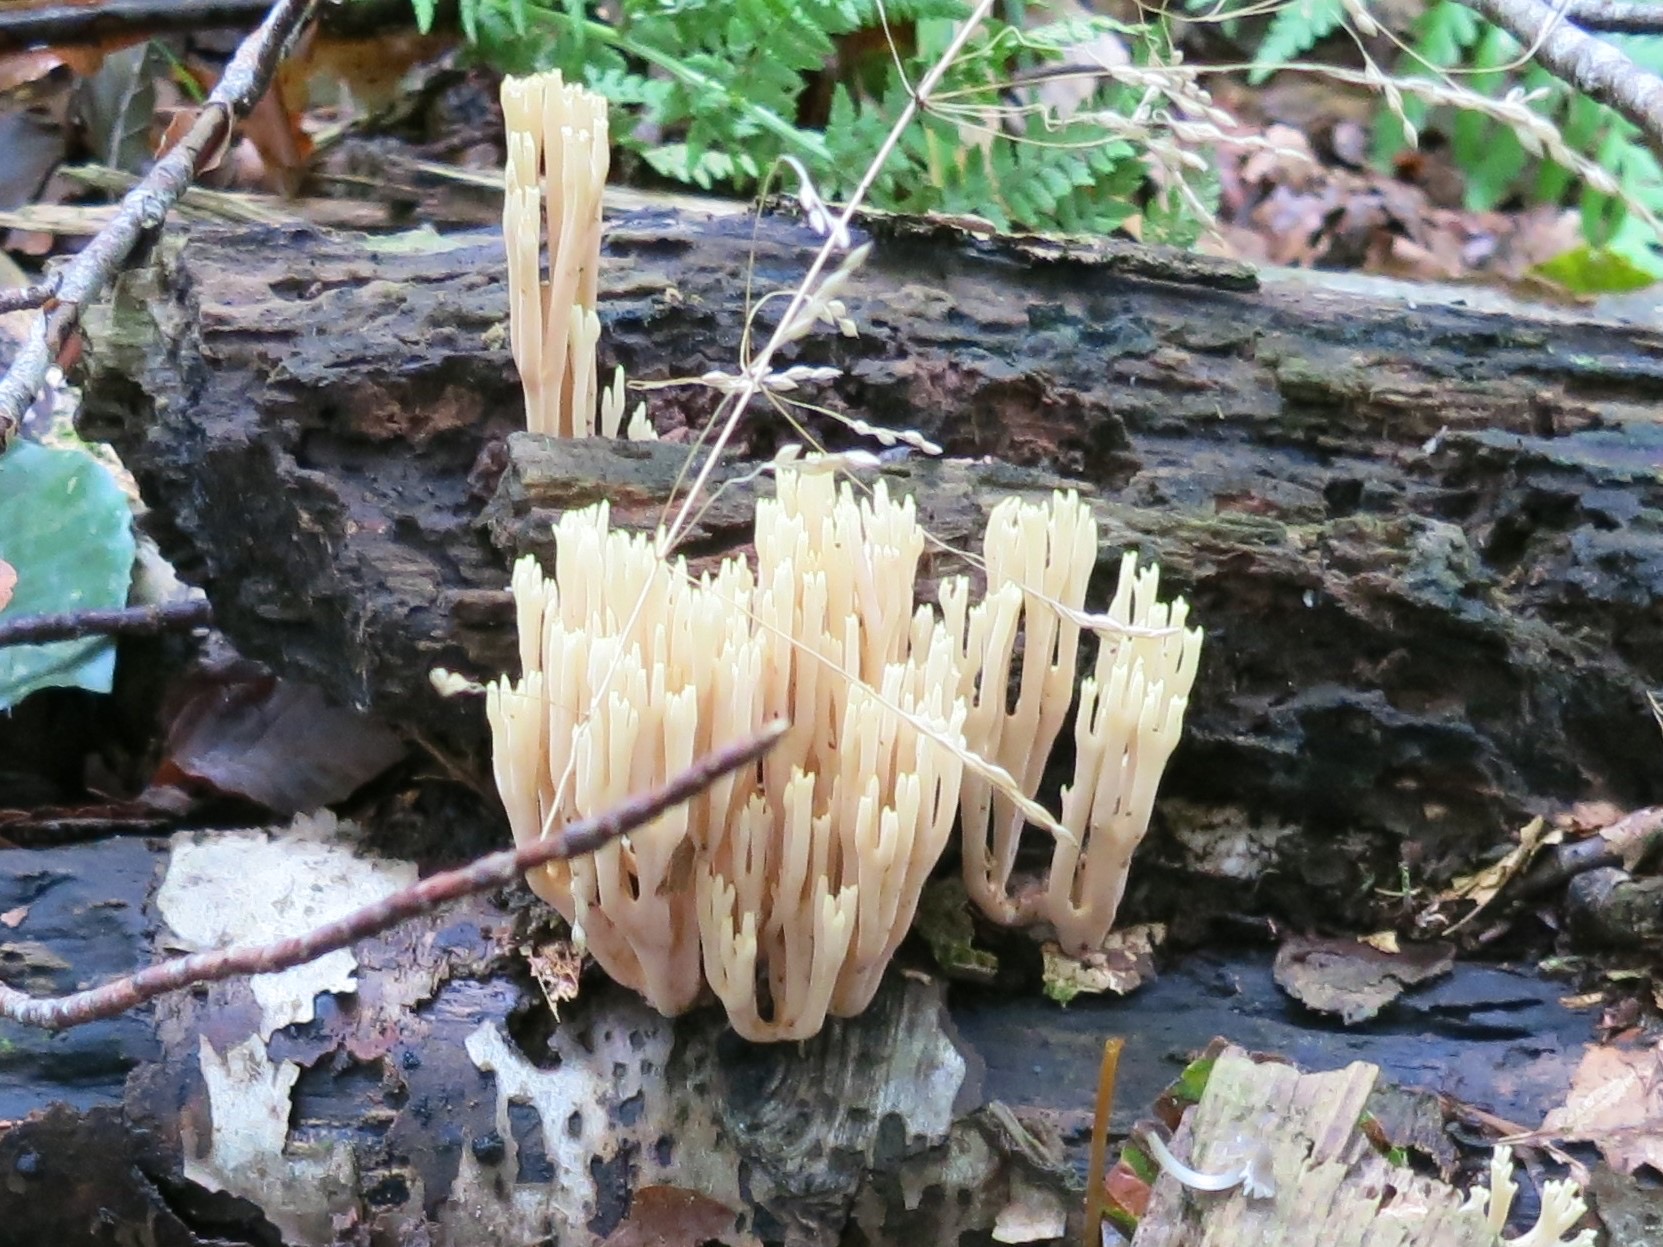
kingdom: Fungi
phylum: Basidiomycota
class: Agaricomycetes
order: Gomphales
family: Gomphaceae
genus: Ramaria
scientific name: Ramaria stricta
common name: rank koralsvamp
